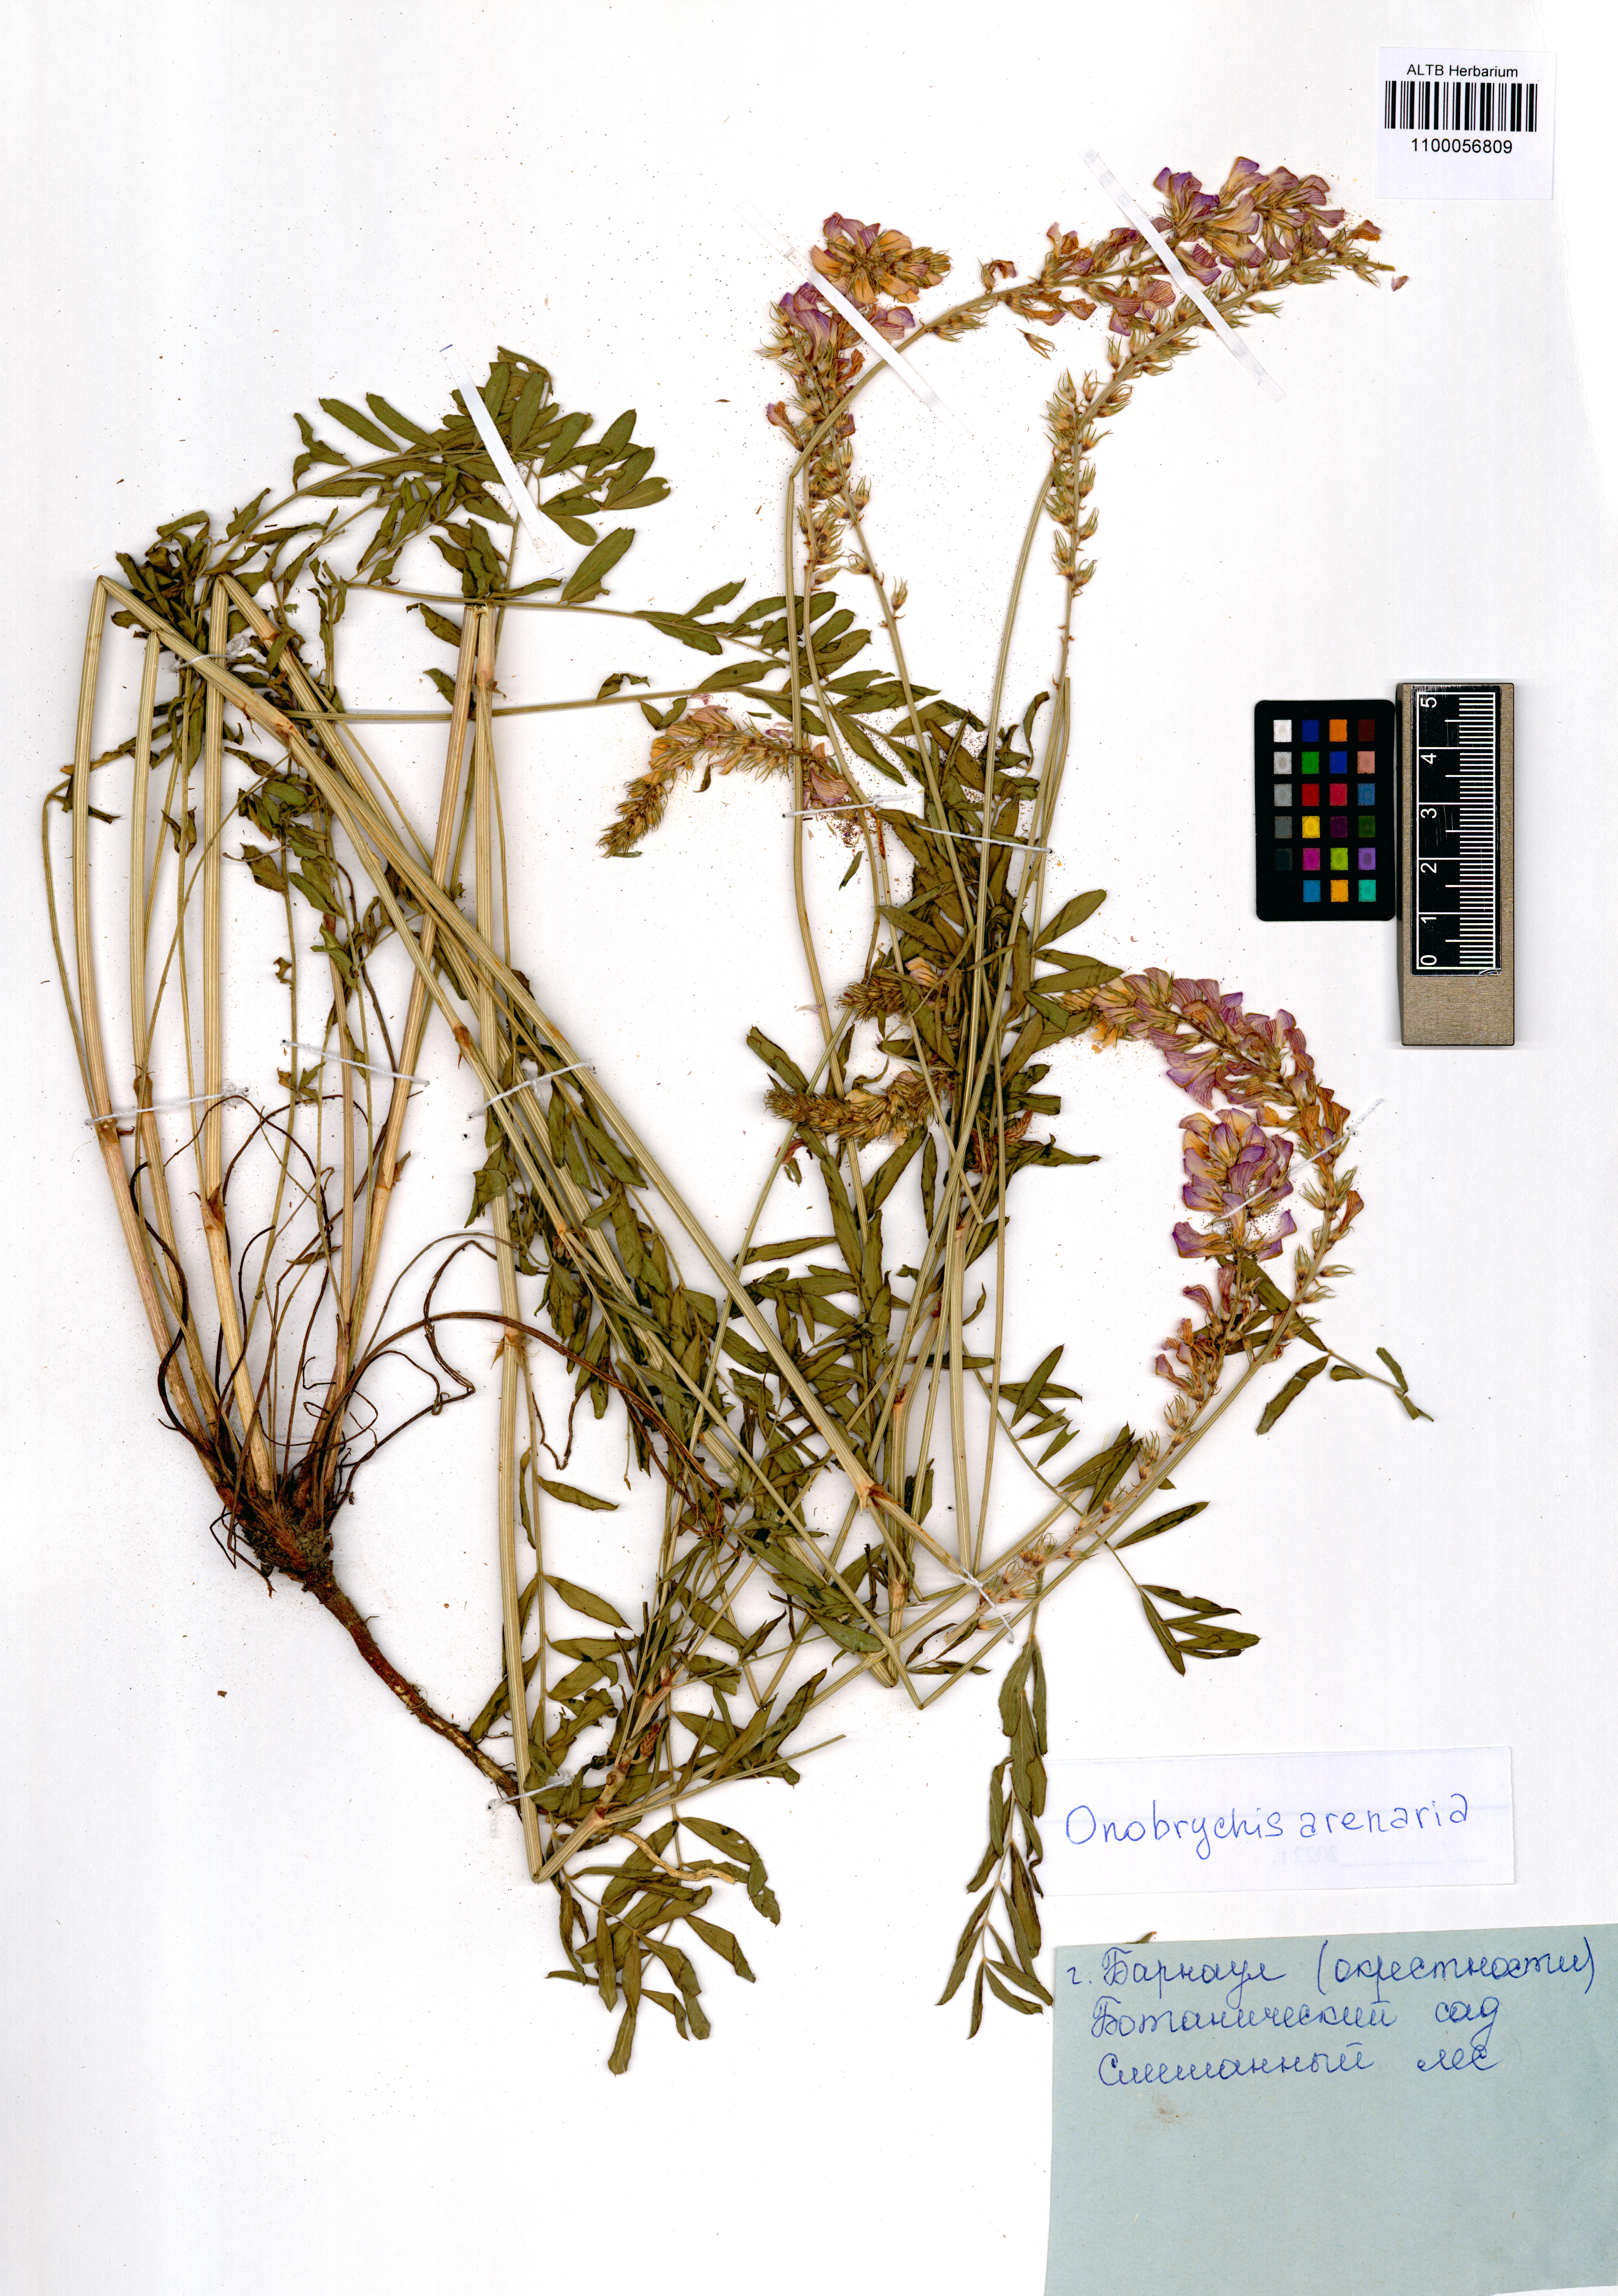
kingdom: Plantae
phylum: Tracheophyta
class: Magnoliopsida
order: Fabales
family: Fabaceae
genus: Onobrychis
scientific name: Onobrychis arenaria
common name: Sand esparcet
